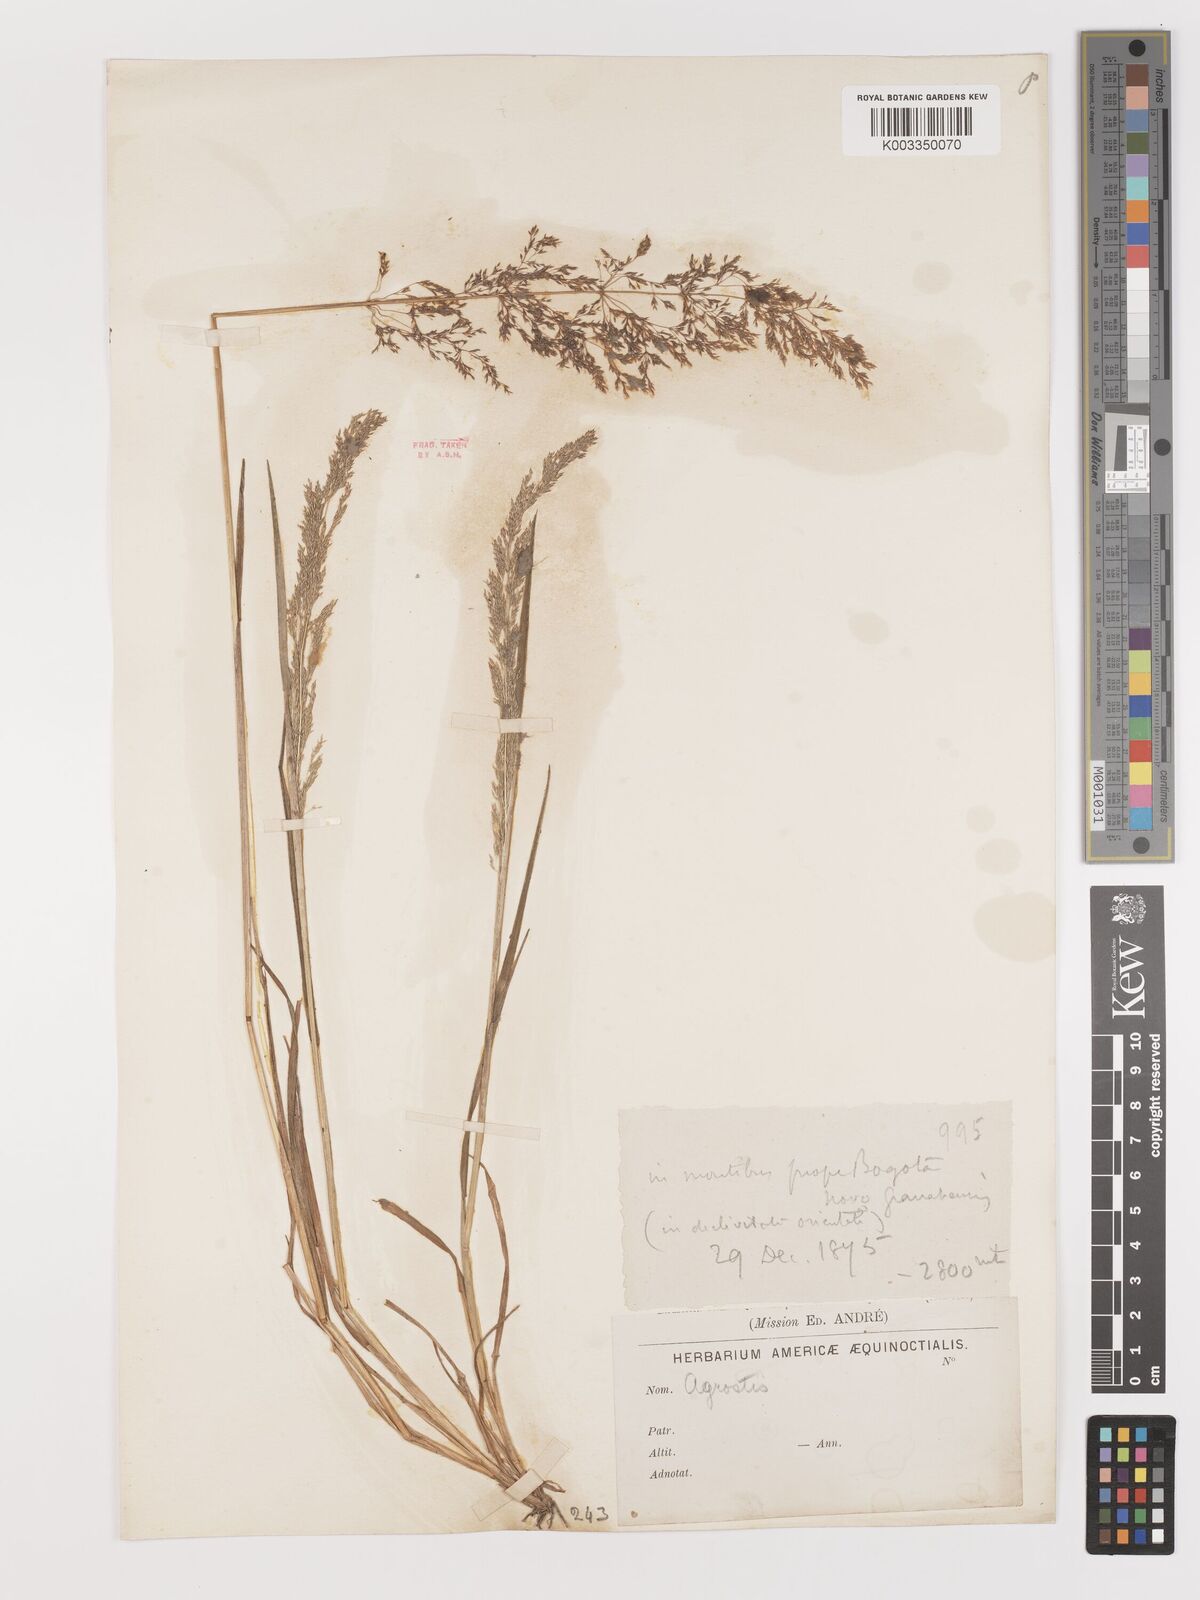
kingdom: Plantae
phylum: Tracheophyta
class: Liliopsida
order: Poales
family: Poaceae
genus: Agrostis
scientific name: Agrostis
